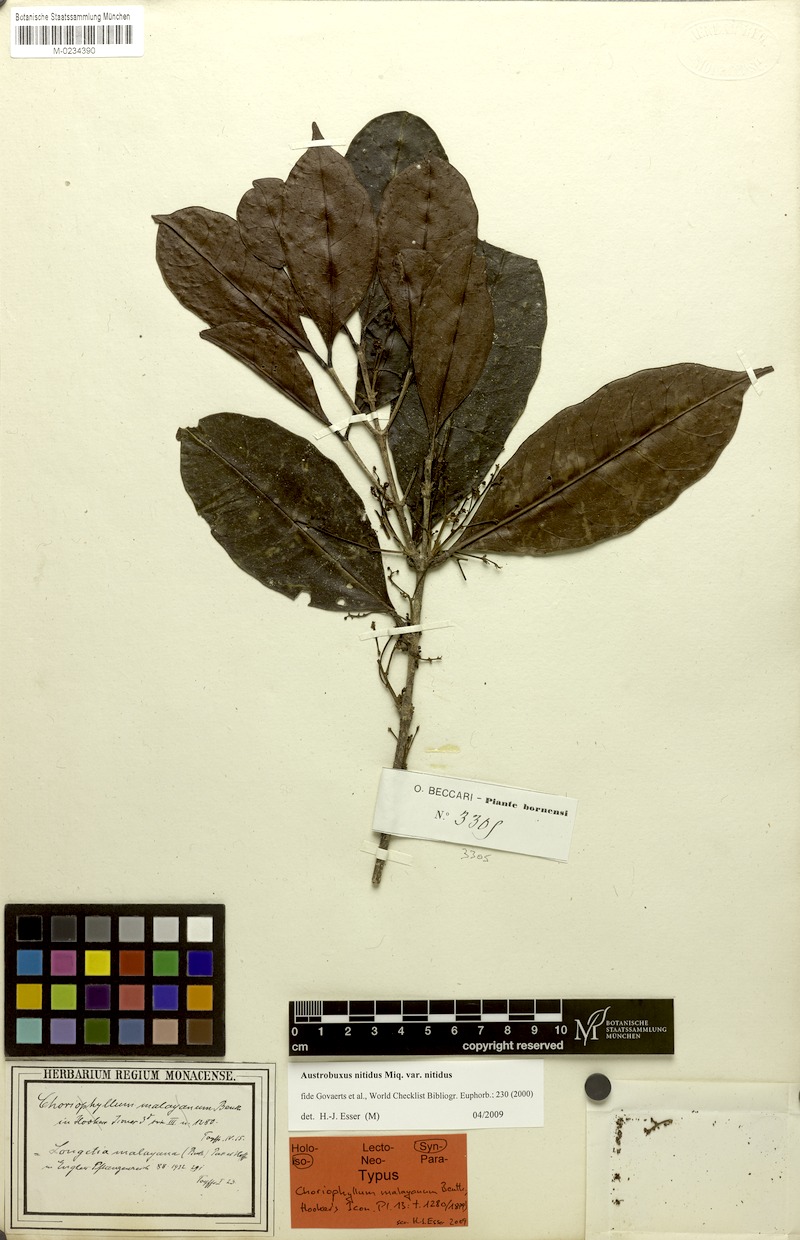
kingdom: Plantae
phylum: Tracheophyta
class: Magnoliopsida
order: Malpighiales
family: Picrodendraceae
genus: Austrobuxus
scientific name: Austrobuxus nitidus
